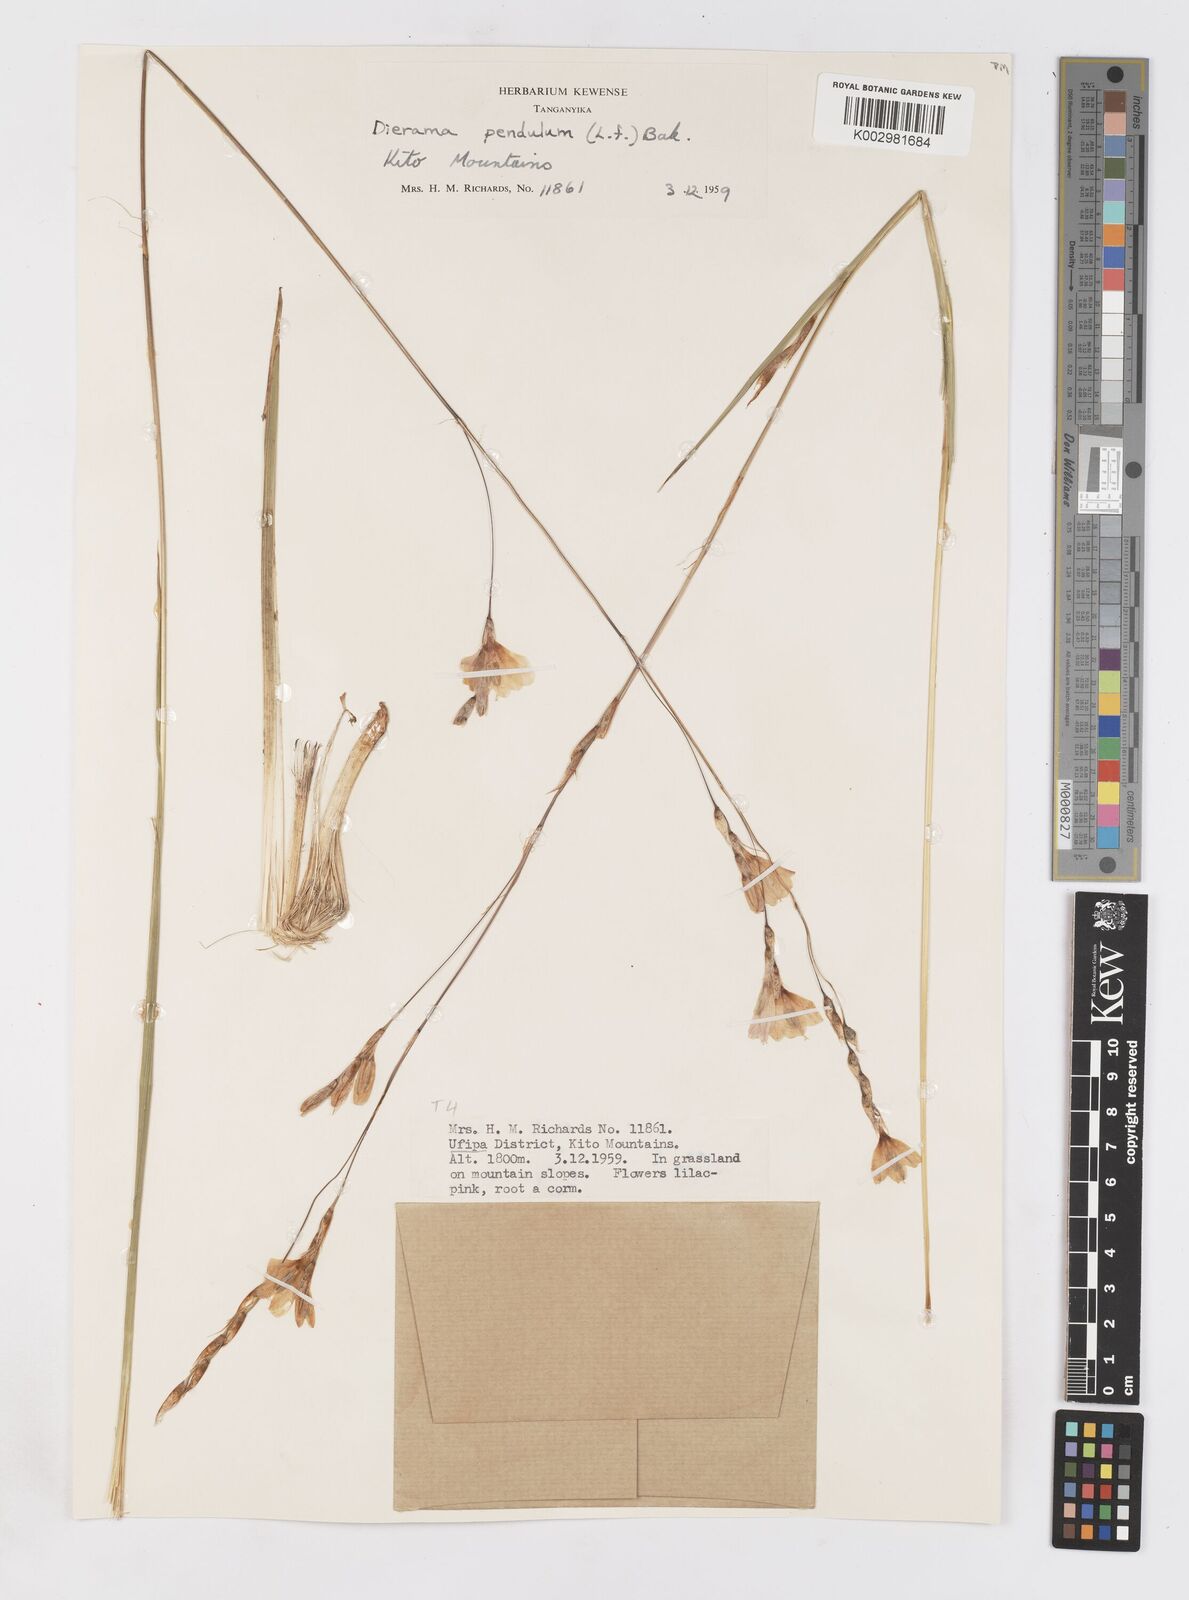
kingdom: Plantae
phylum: Tracheophyta
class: Liliopsida
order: Asparagales
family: Iridaceae
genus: Dierama
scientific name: Dierama parviflorum
